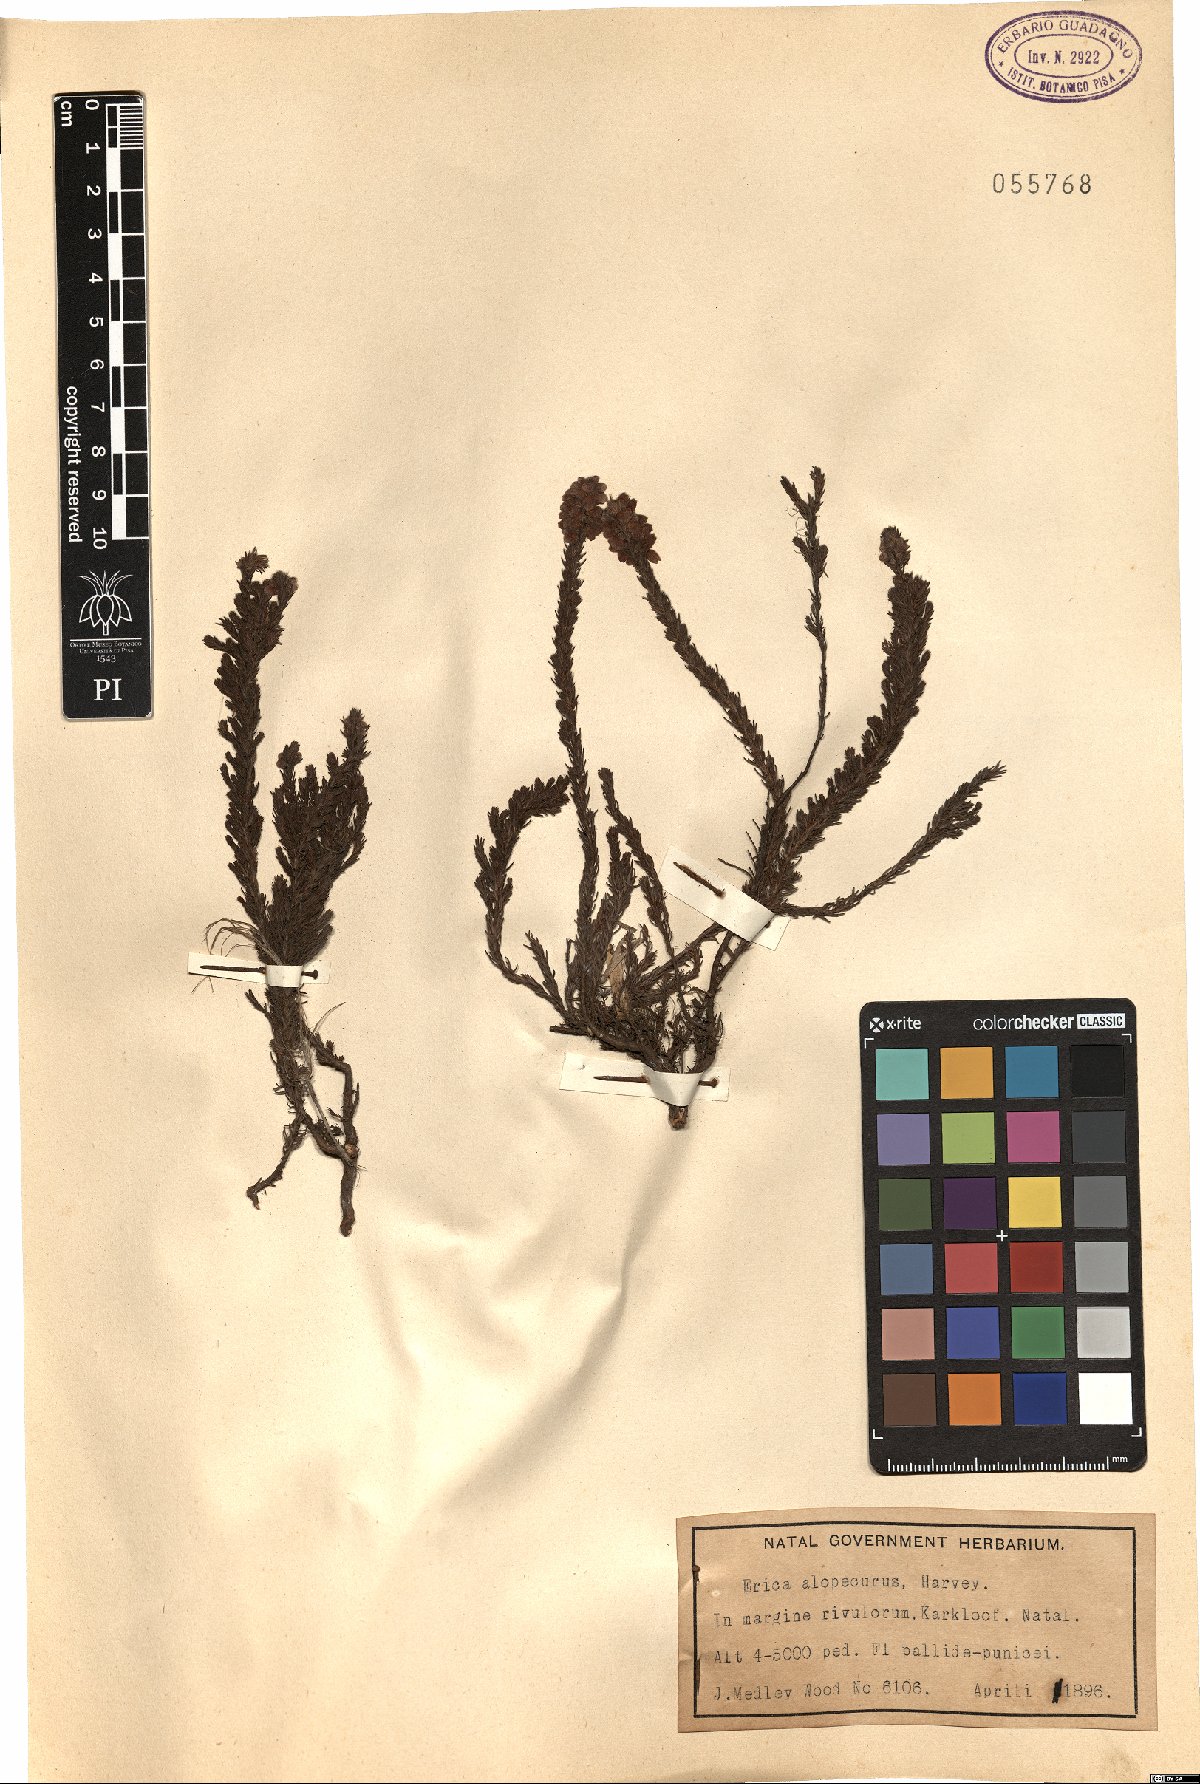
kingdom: Plantae
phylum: Tracheophyta
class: Magnoliopsida
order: Ericales
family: Ericaceae
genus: Erica
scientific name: Erica alopecurus
